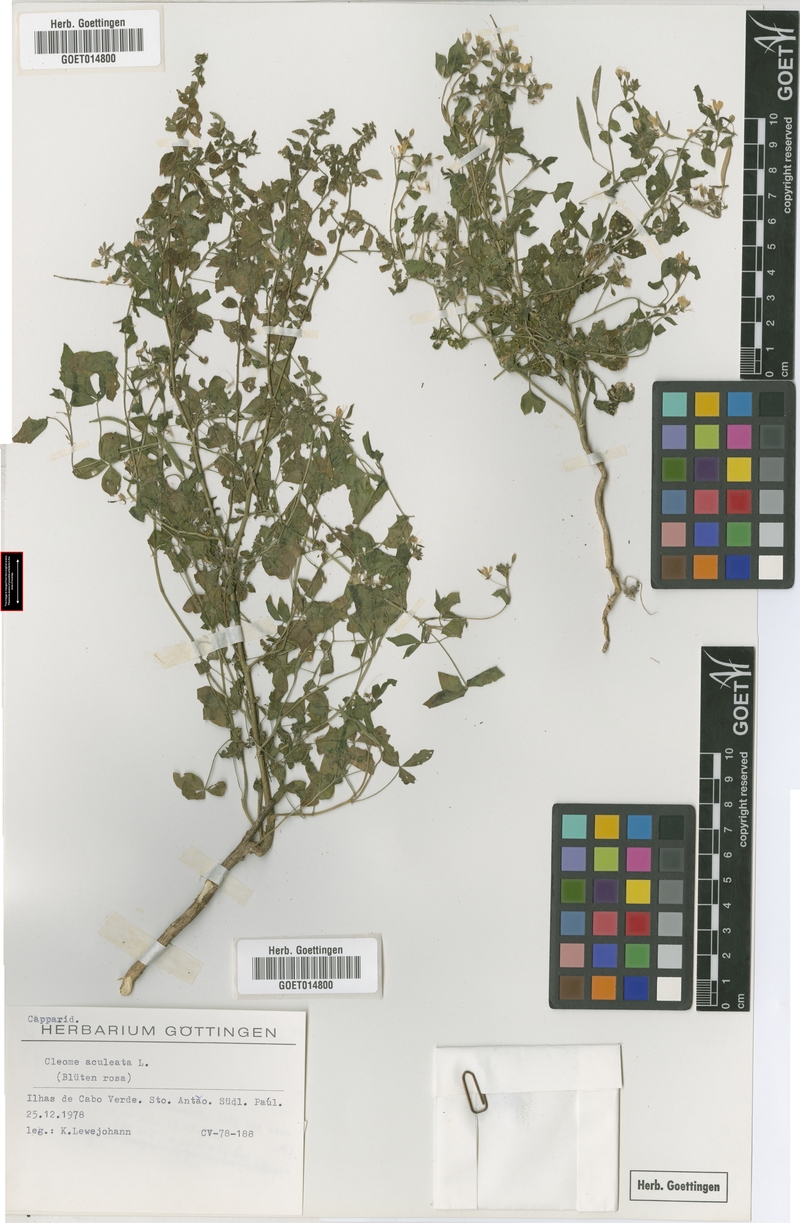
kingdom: Plantae
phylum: Tracheophyta
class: Magnoliopsida
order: Brassicales
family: Cleomaceae
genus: Tarenaya
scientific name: Tarenaya aculeata
